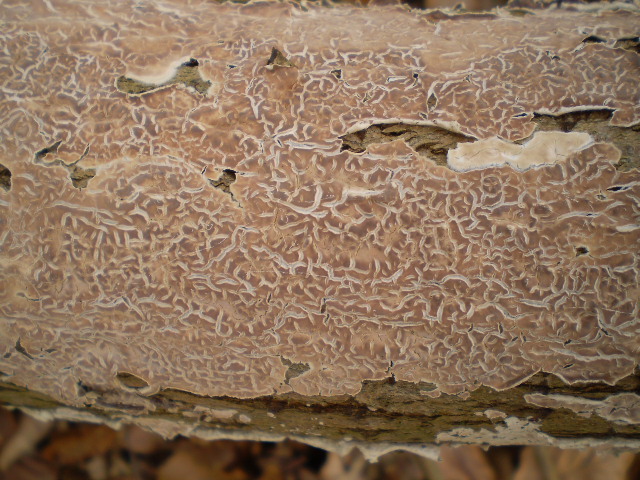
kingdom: Fungi
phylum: Basidiomycota
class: Agaricomycetes
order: Agaricales
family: Physalacriaceae
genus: Cylindrobasidium
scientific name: Cylindrobasidium evolvens
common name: sprækkehinde
